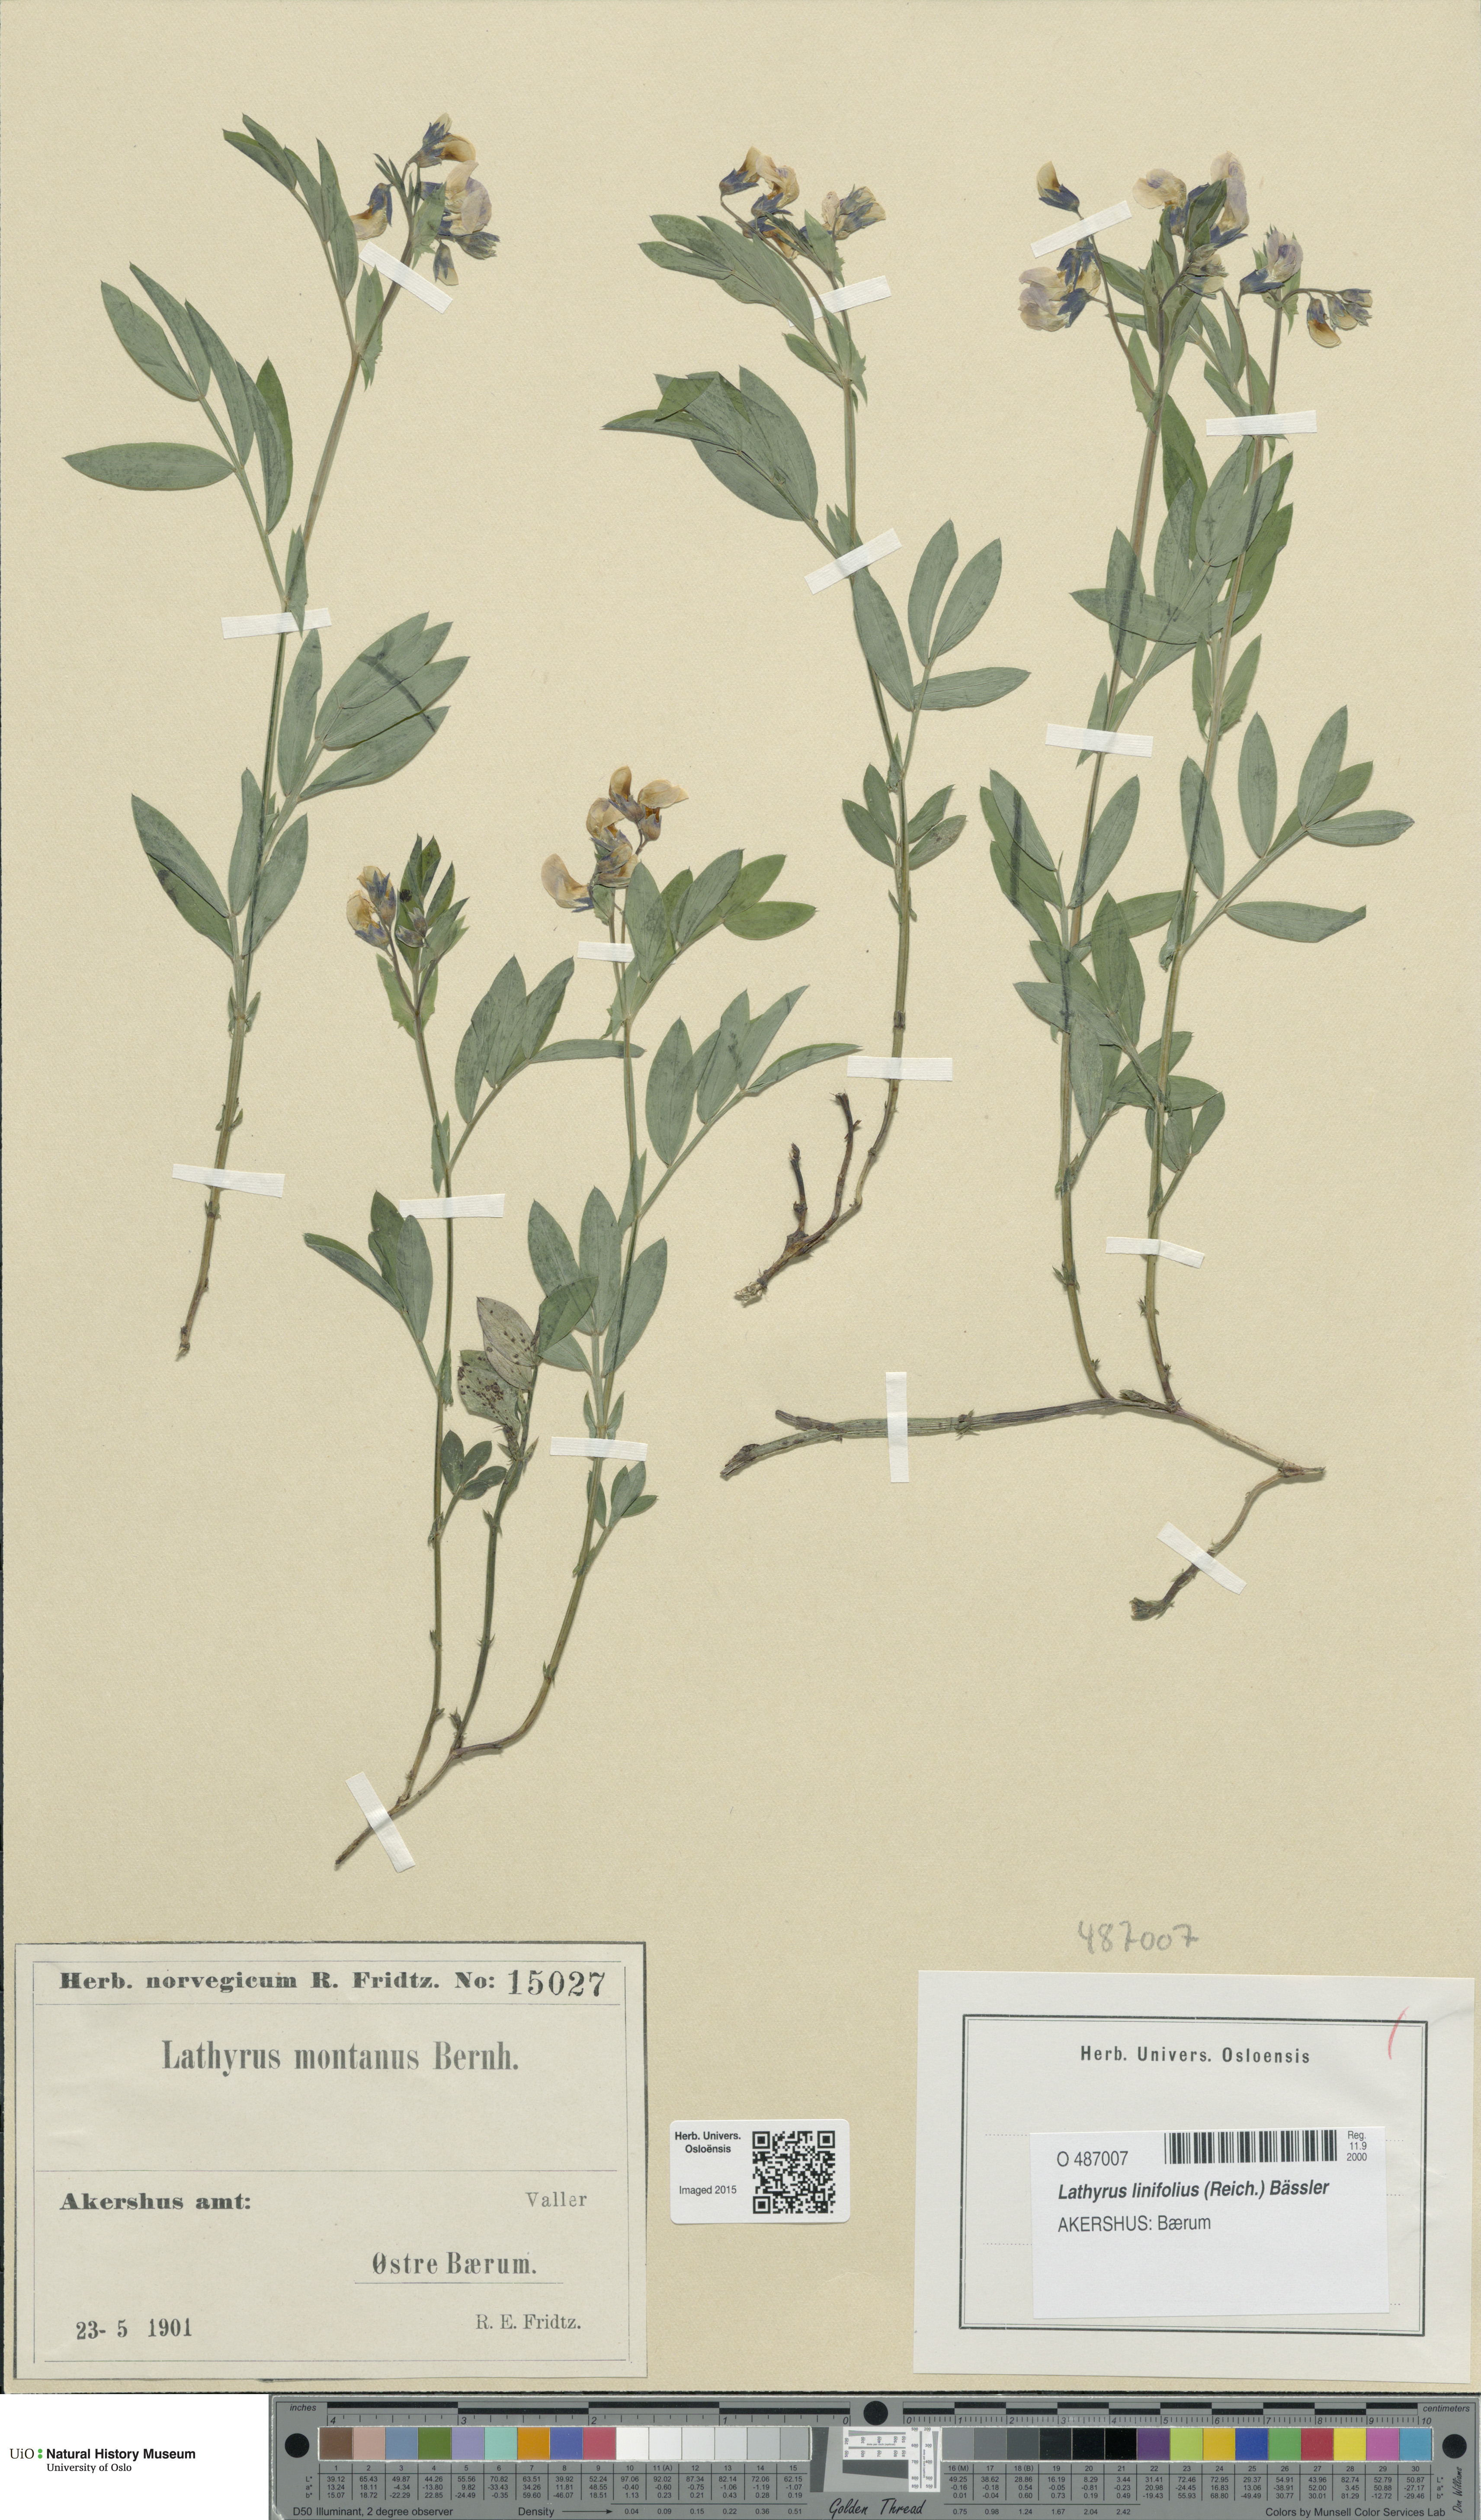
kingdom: Plantae
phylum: Tracheophyta
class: Magnoliopsida
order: Fabales
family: Fabaceae
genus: Lathyrus
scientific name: Lathyrus linifolius
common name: Bitter-vetch
